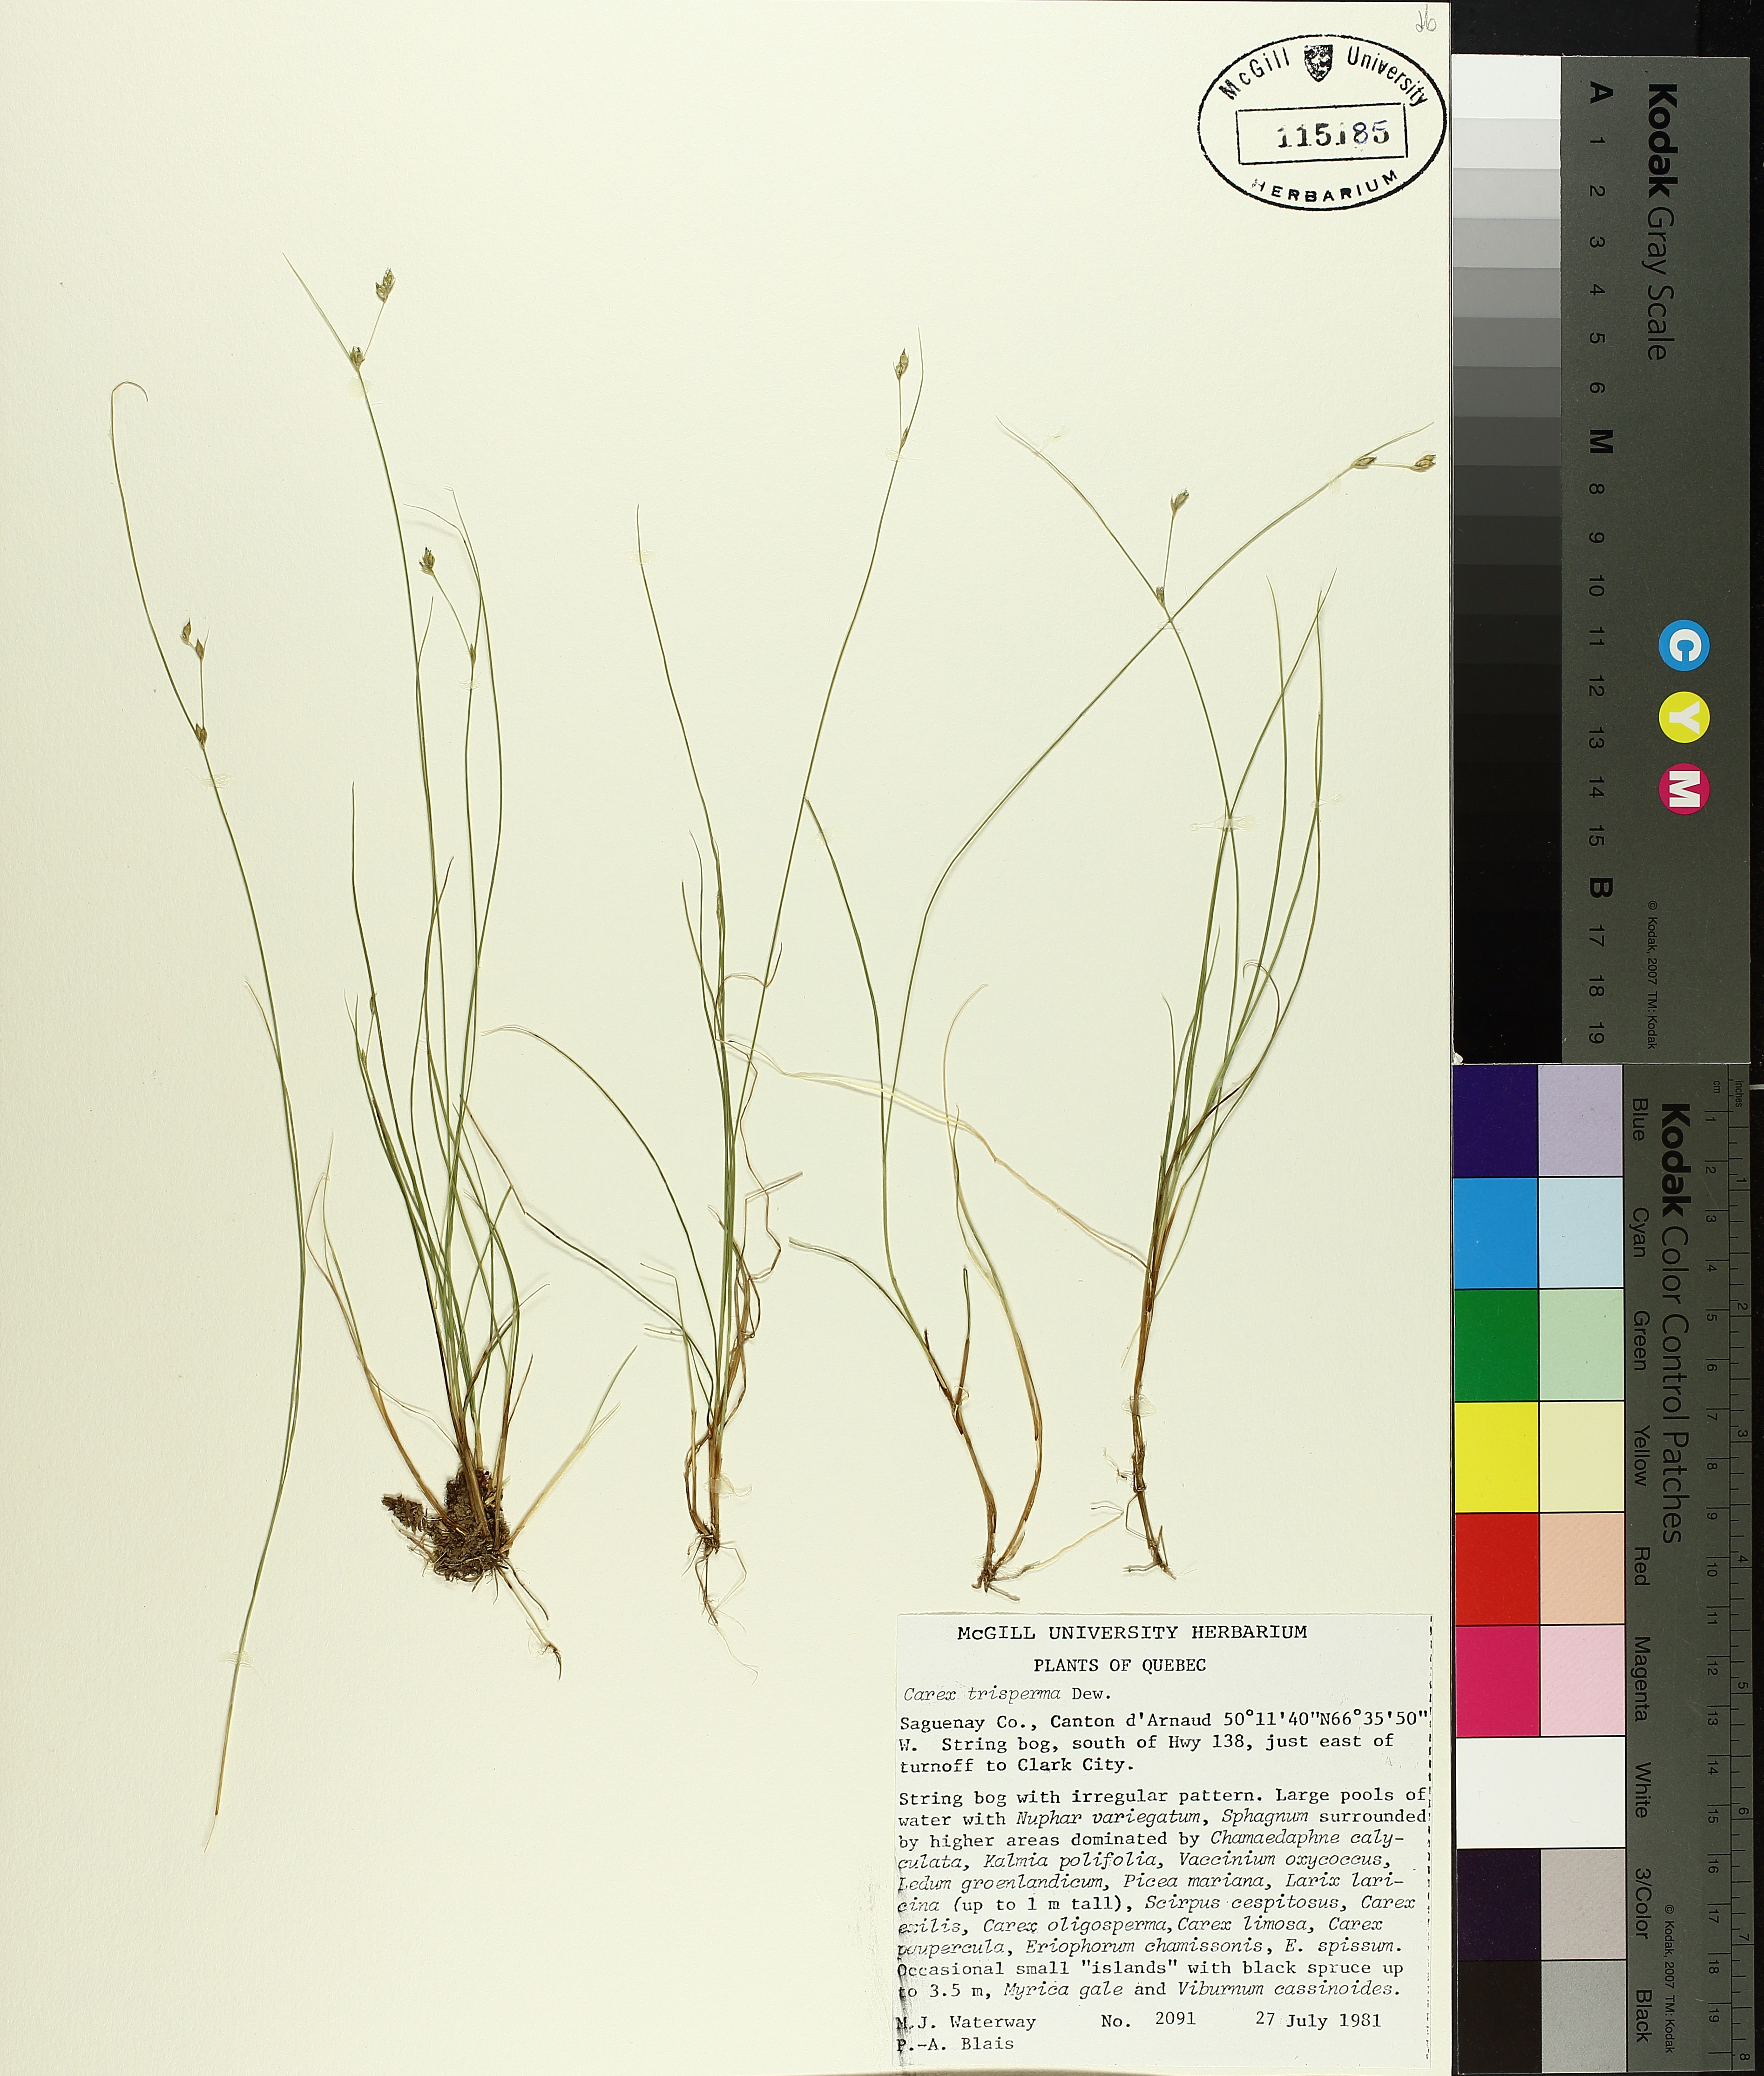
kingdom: Plantae
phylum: Tracheophyta
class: Liliopsida
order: Poales
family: Cyperaceae
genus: Carex
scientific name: Carex trisperma
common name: Three-seeded sedge
